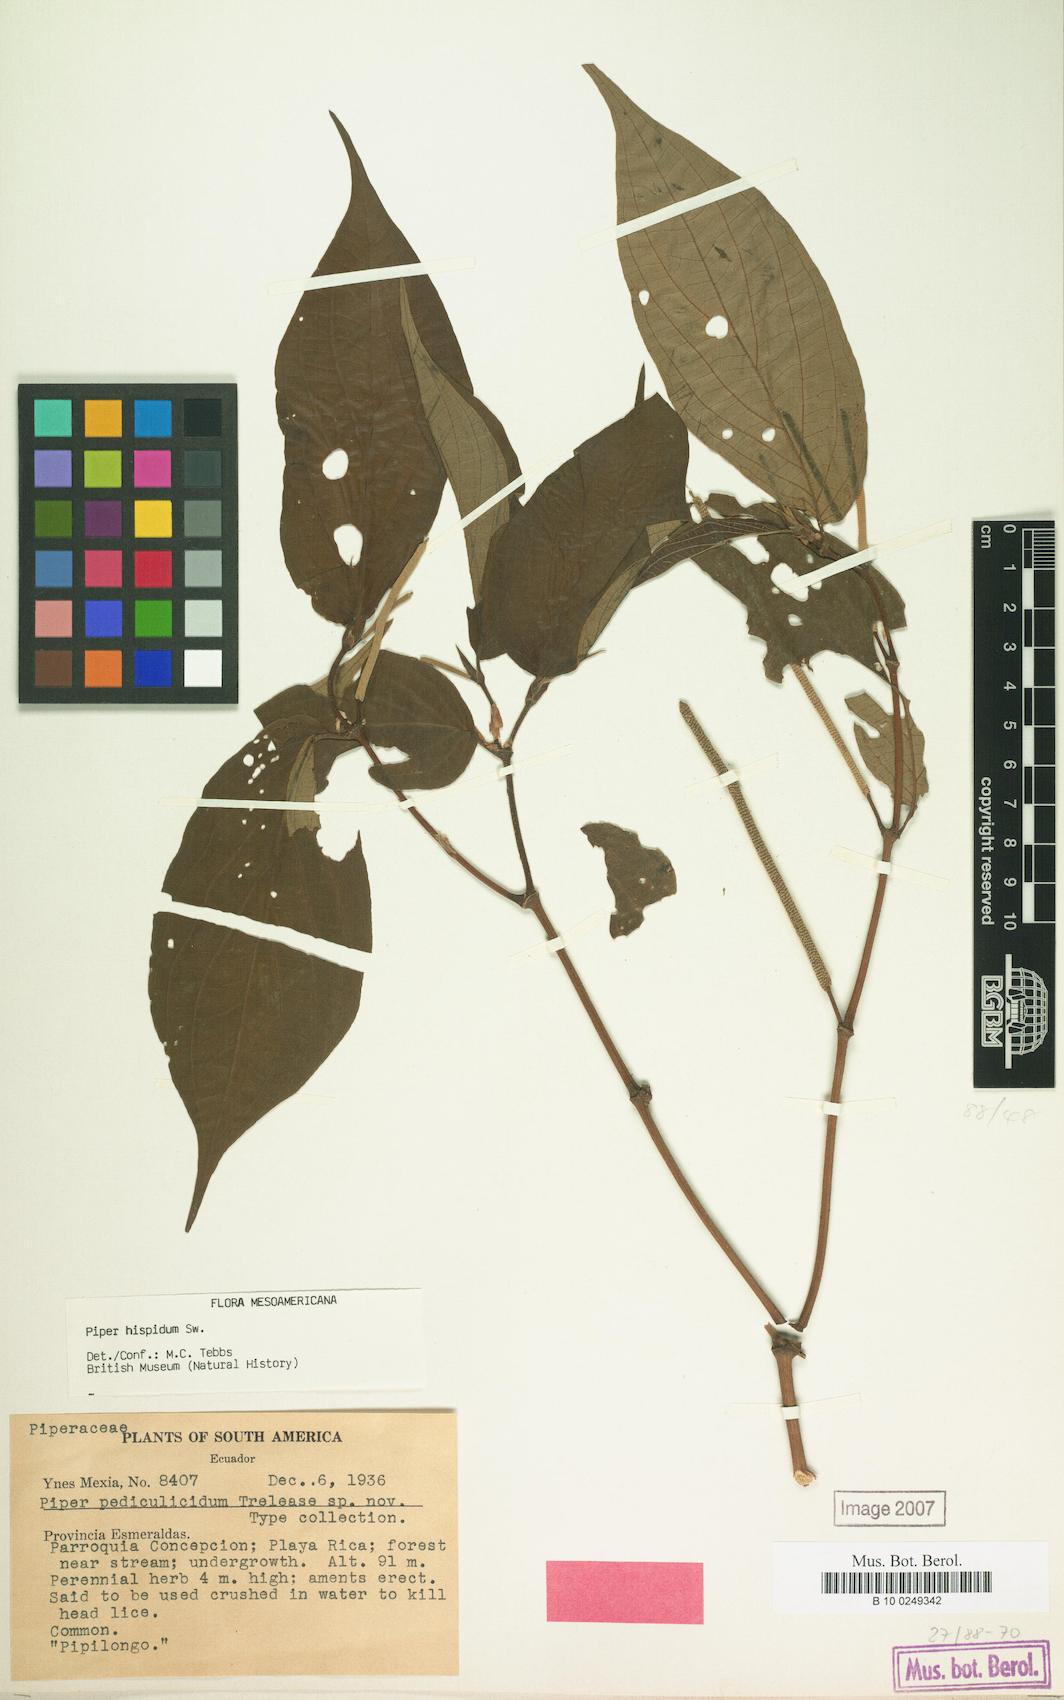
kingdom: Plantae
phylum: Tracheophyta
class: Magnoliopsida
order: Piperales
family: Piperaceae
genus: Piper
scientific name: Piper hispidum
